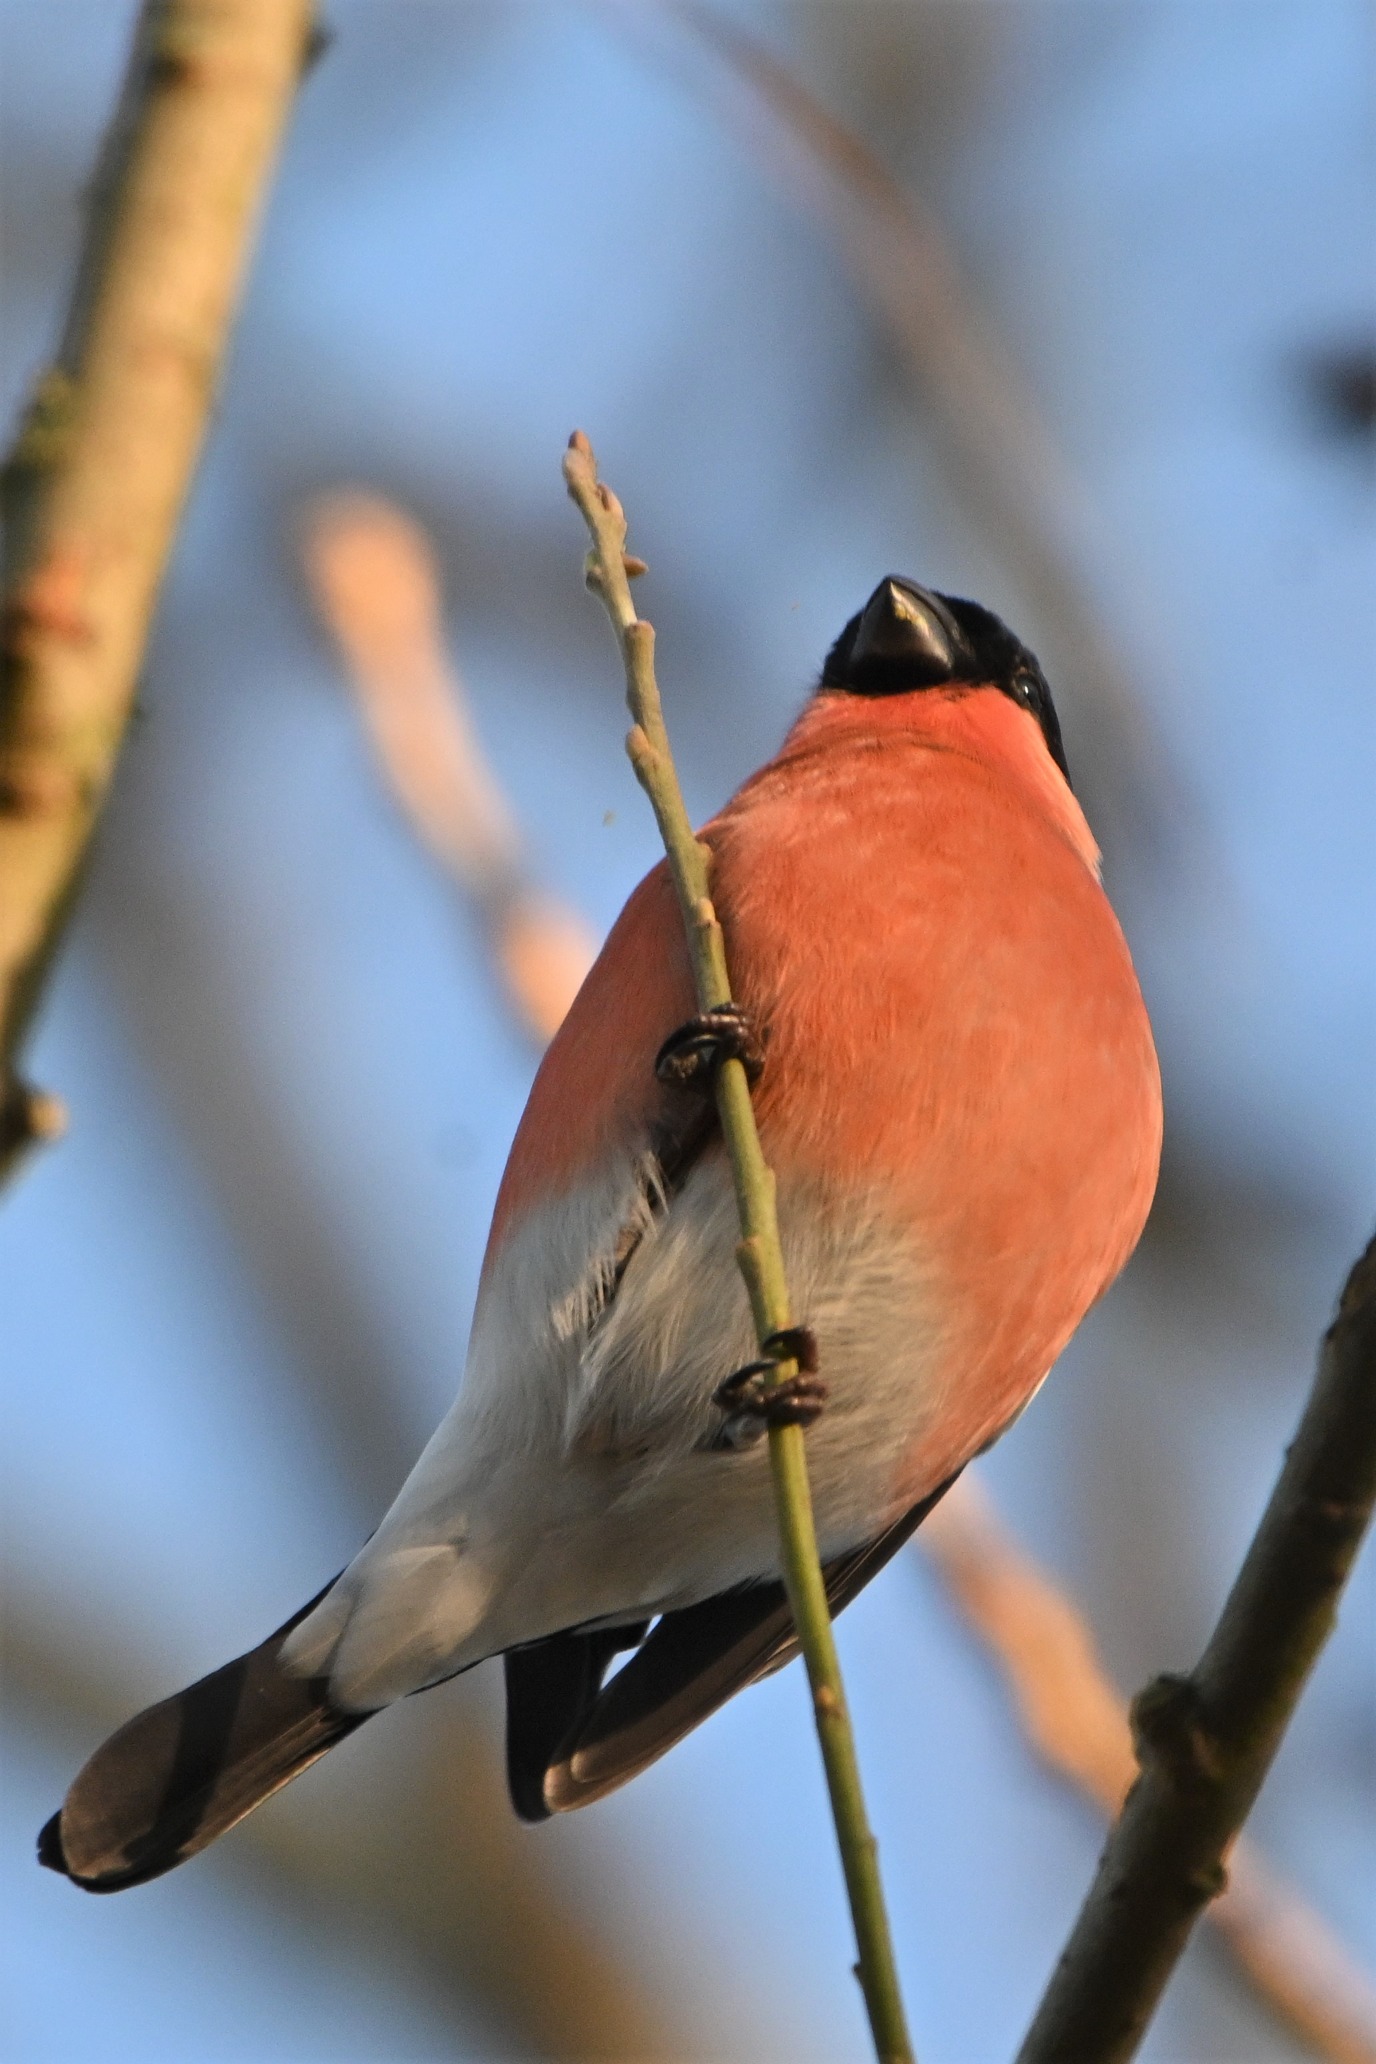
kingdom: Animalia
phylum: Chordata
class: Aves
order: Passeriformes
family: Fringillidae
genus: Pyrrhula
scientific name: Pyrrhula pyrrhula
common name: Dompap
